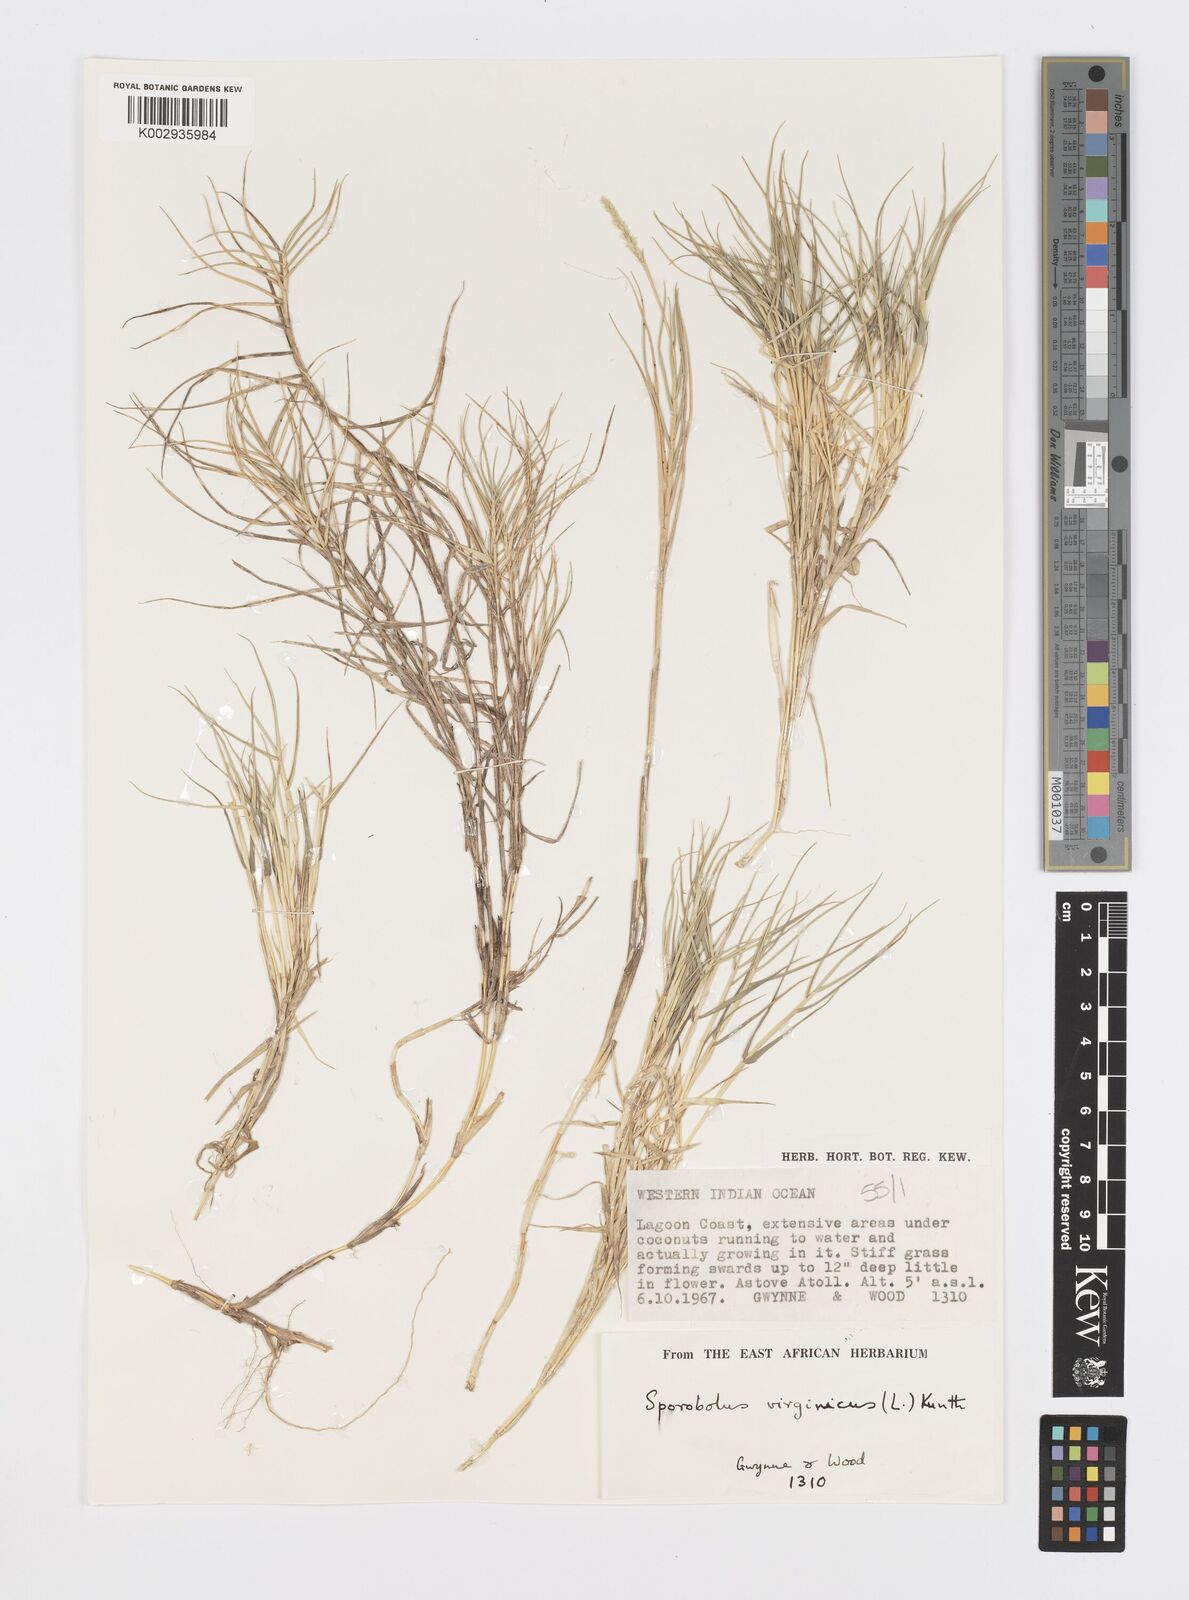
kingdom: Plantae
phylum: Tracheophyta
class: Liliopsida
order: Poales
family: Poaceae
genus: Sporobolus
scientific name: Sporobolus virginicus
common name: Beach dropseed
